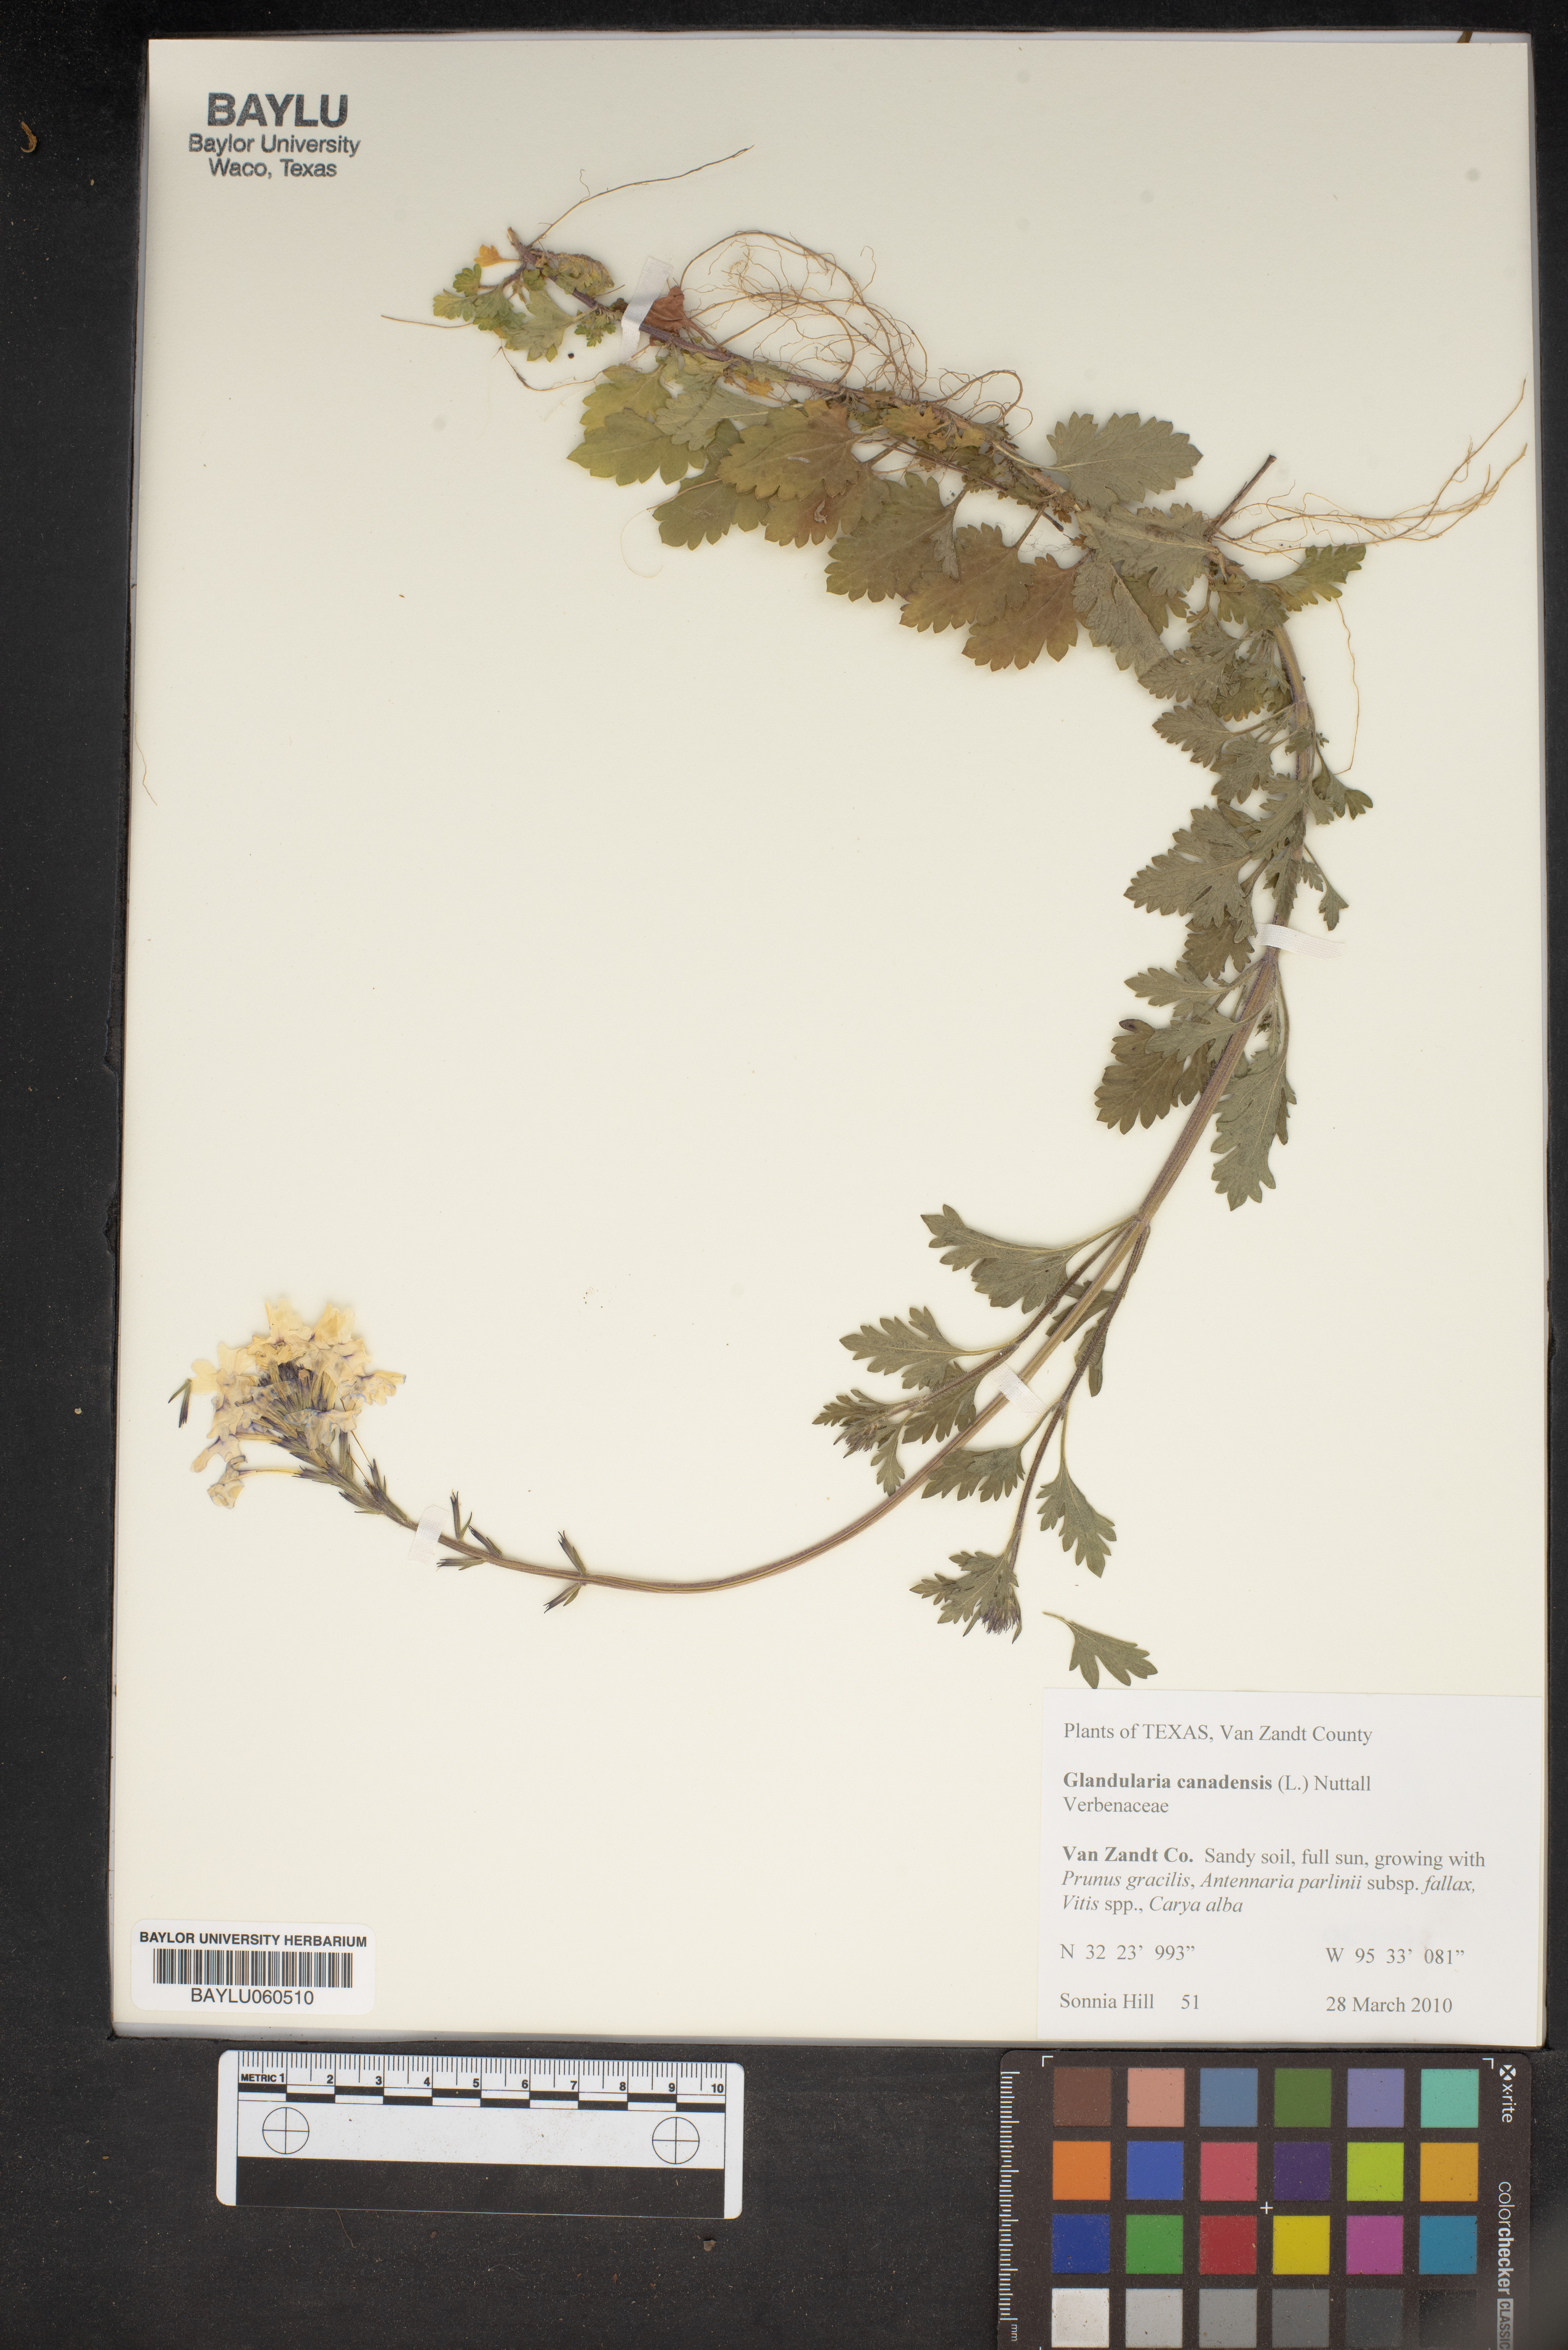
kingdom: Plantae
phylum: Tracheophyta
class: Magnoliopsida
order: Lamiales
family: Verbenaceae
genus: Verbena
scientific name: Verbena canadensis
